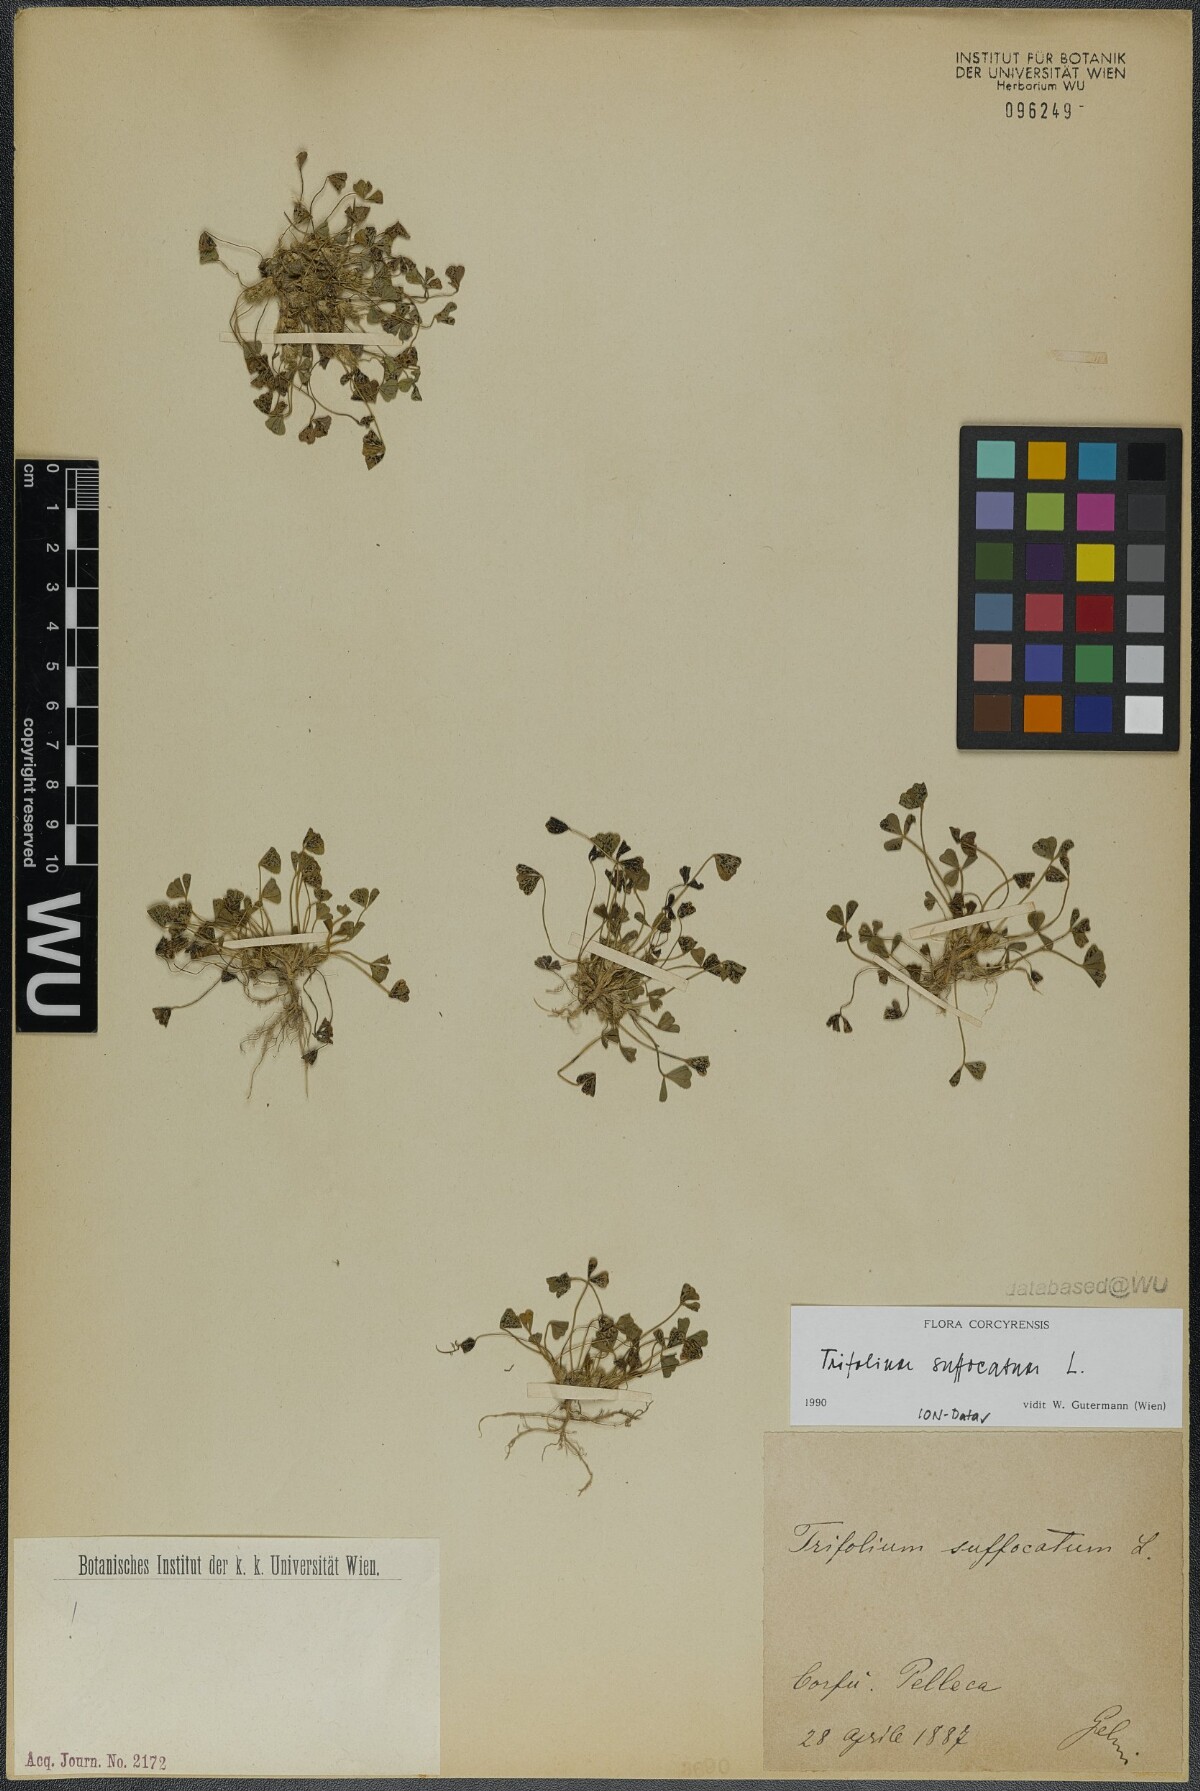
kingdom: Plantae
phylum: Tracheophyta
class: Magnoliopsida
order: Fabales
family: Fabaceae
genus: Trifolium
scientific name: Trifolium suffocatum
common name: Suffocated clover
